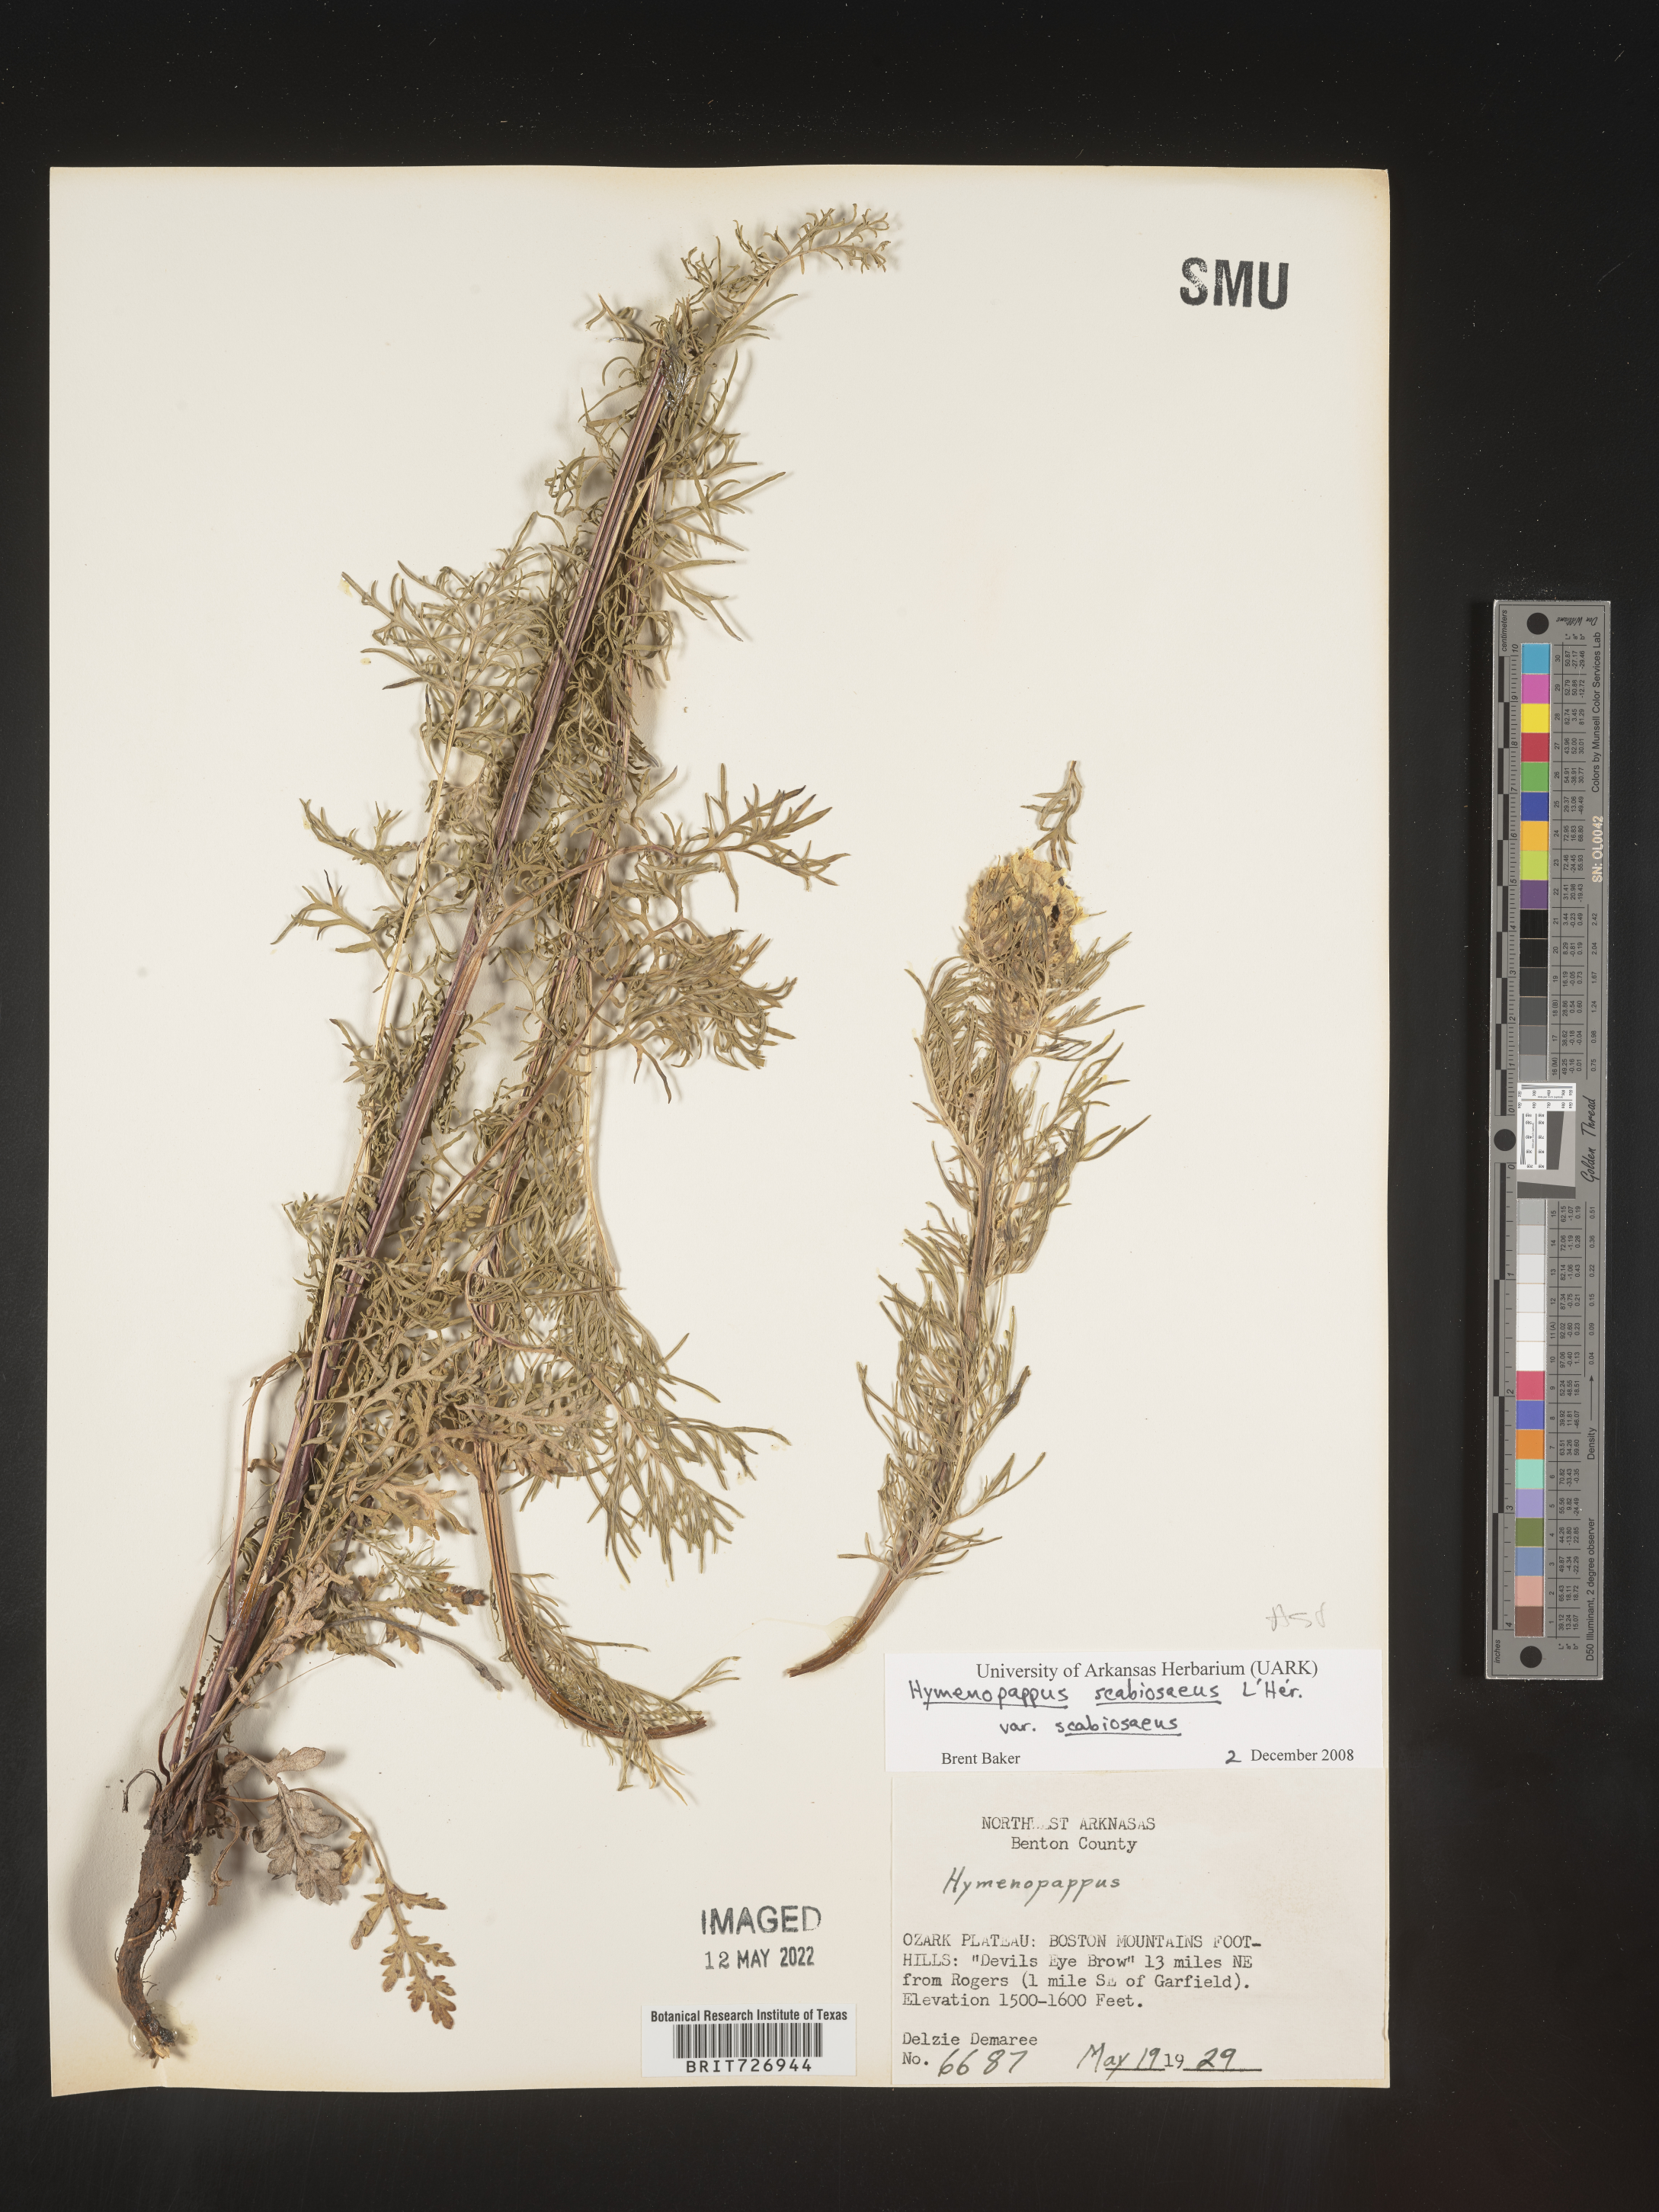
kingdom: Plantae
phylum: Tracheophyta
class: Magnoliopsida
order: Asterales
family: Asteraceae
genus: Hymenopappus
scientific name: Hymenopappus scabiosaeus
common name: Carolina woollywhite
